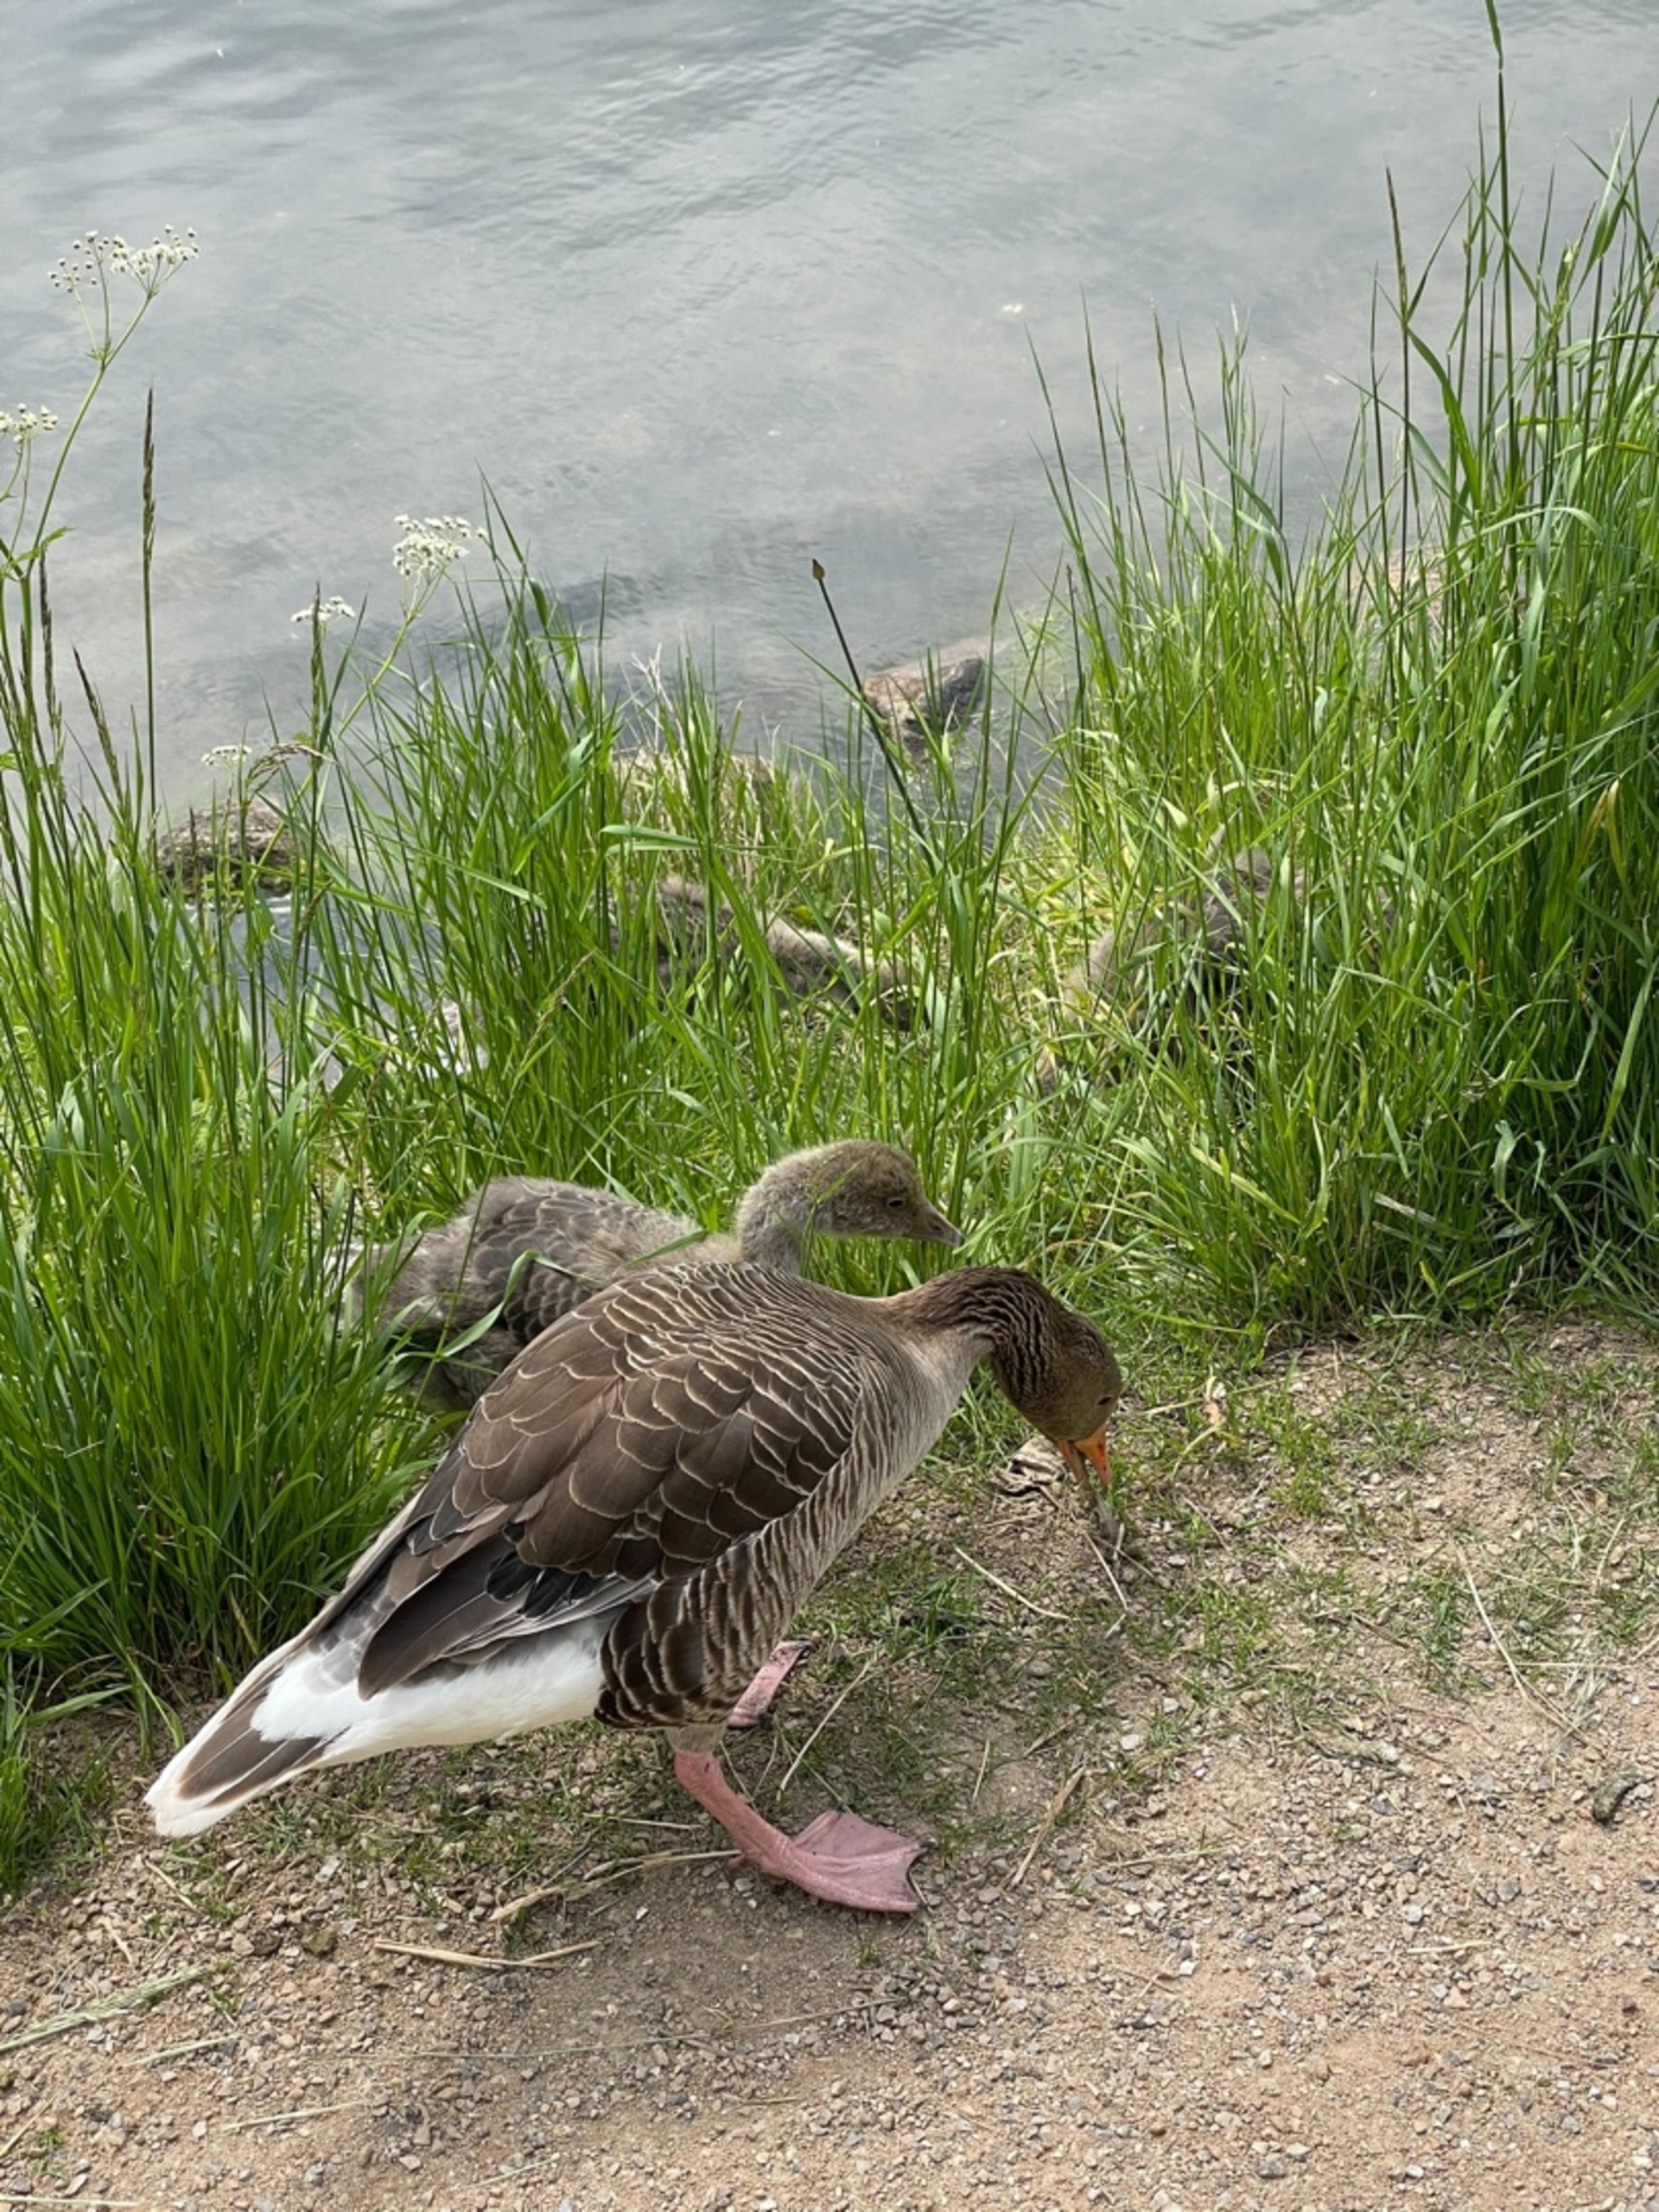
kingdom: Animalia
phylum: Chordata
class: Aves
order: Anseriformes
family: Anatidae
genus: Anser
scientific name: Anser anser
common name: Grågås
